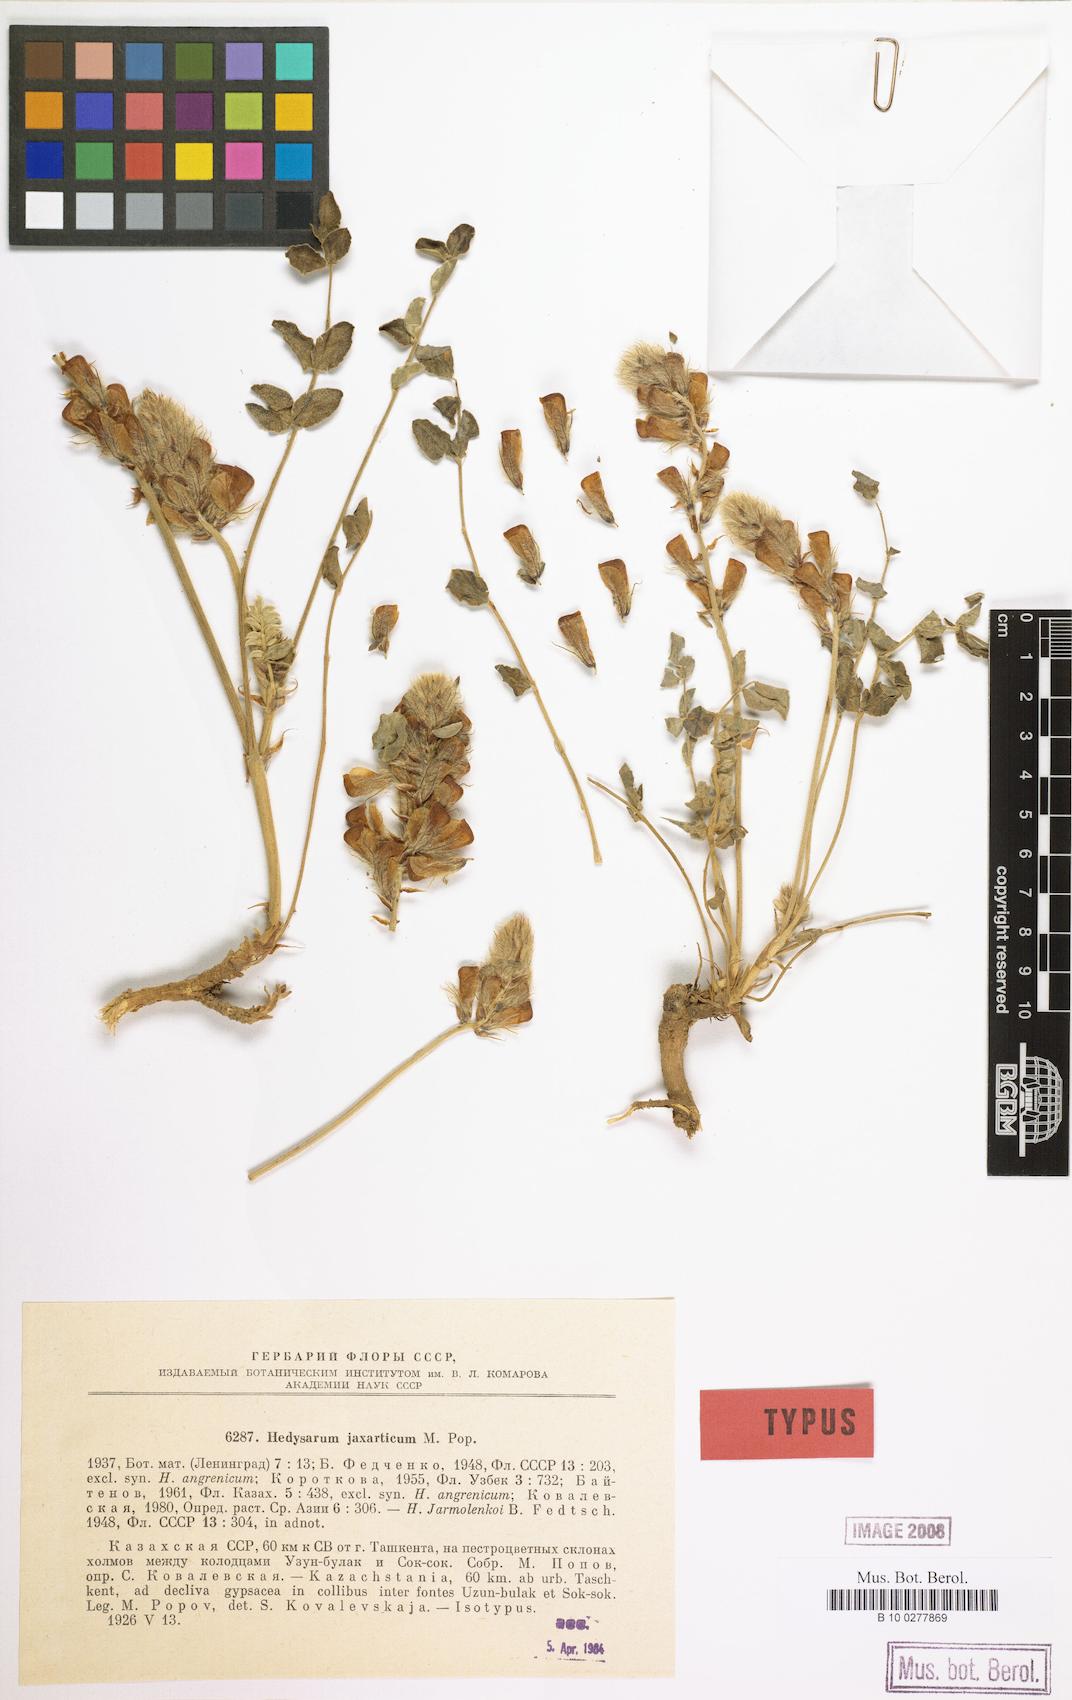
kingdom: Plantae
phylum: Tracheophyta
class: Magnoliopsida
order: Fabales
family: Fabaceae
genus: Hedysarum
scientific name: Hedysarum jaxarticum
